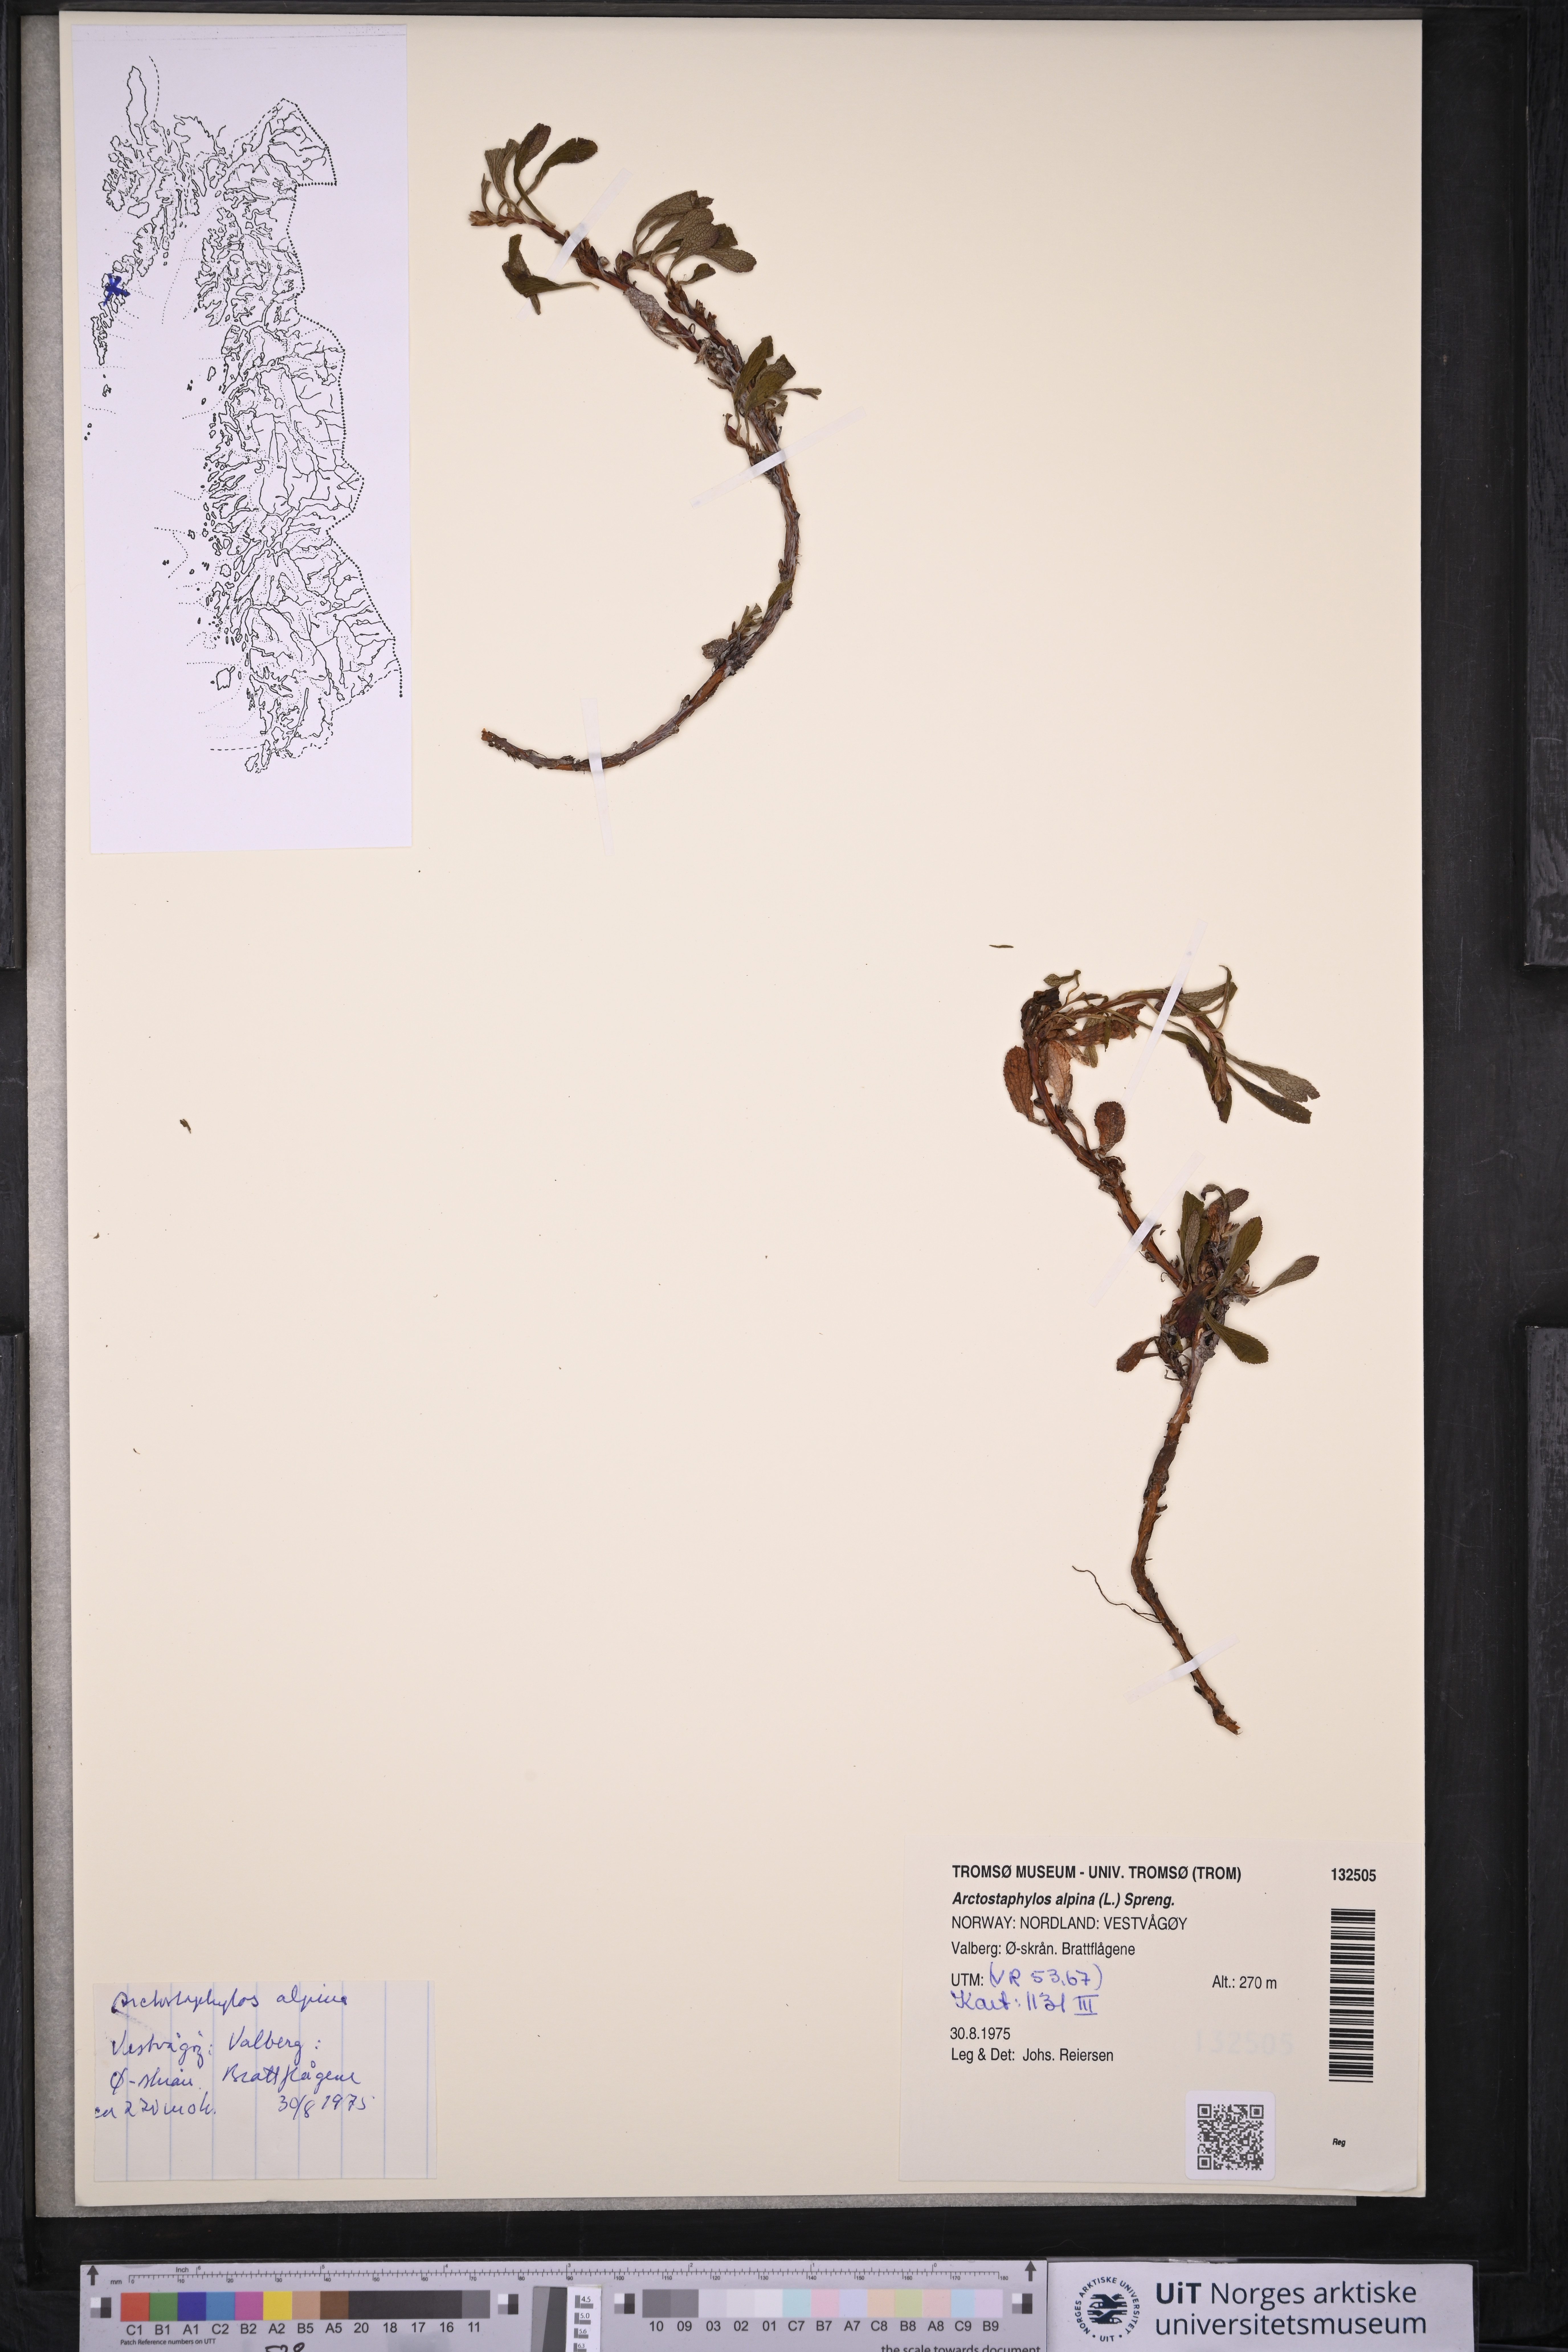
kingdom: Plantae
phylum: Tracheophyta
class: Magnoliopsida
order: Ericales
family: Ericaceae
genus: Arctostaphylos
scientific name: Arctostaphylos alpinus
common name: Alpine bearberry
